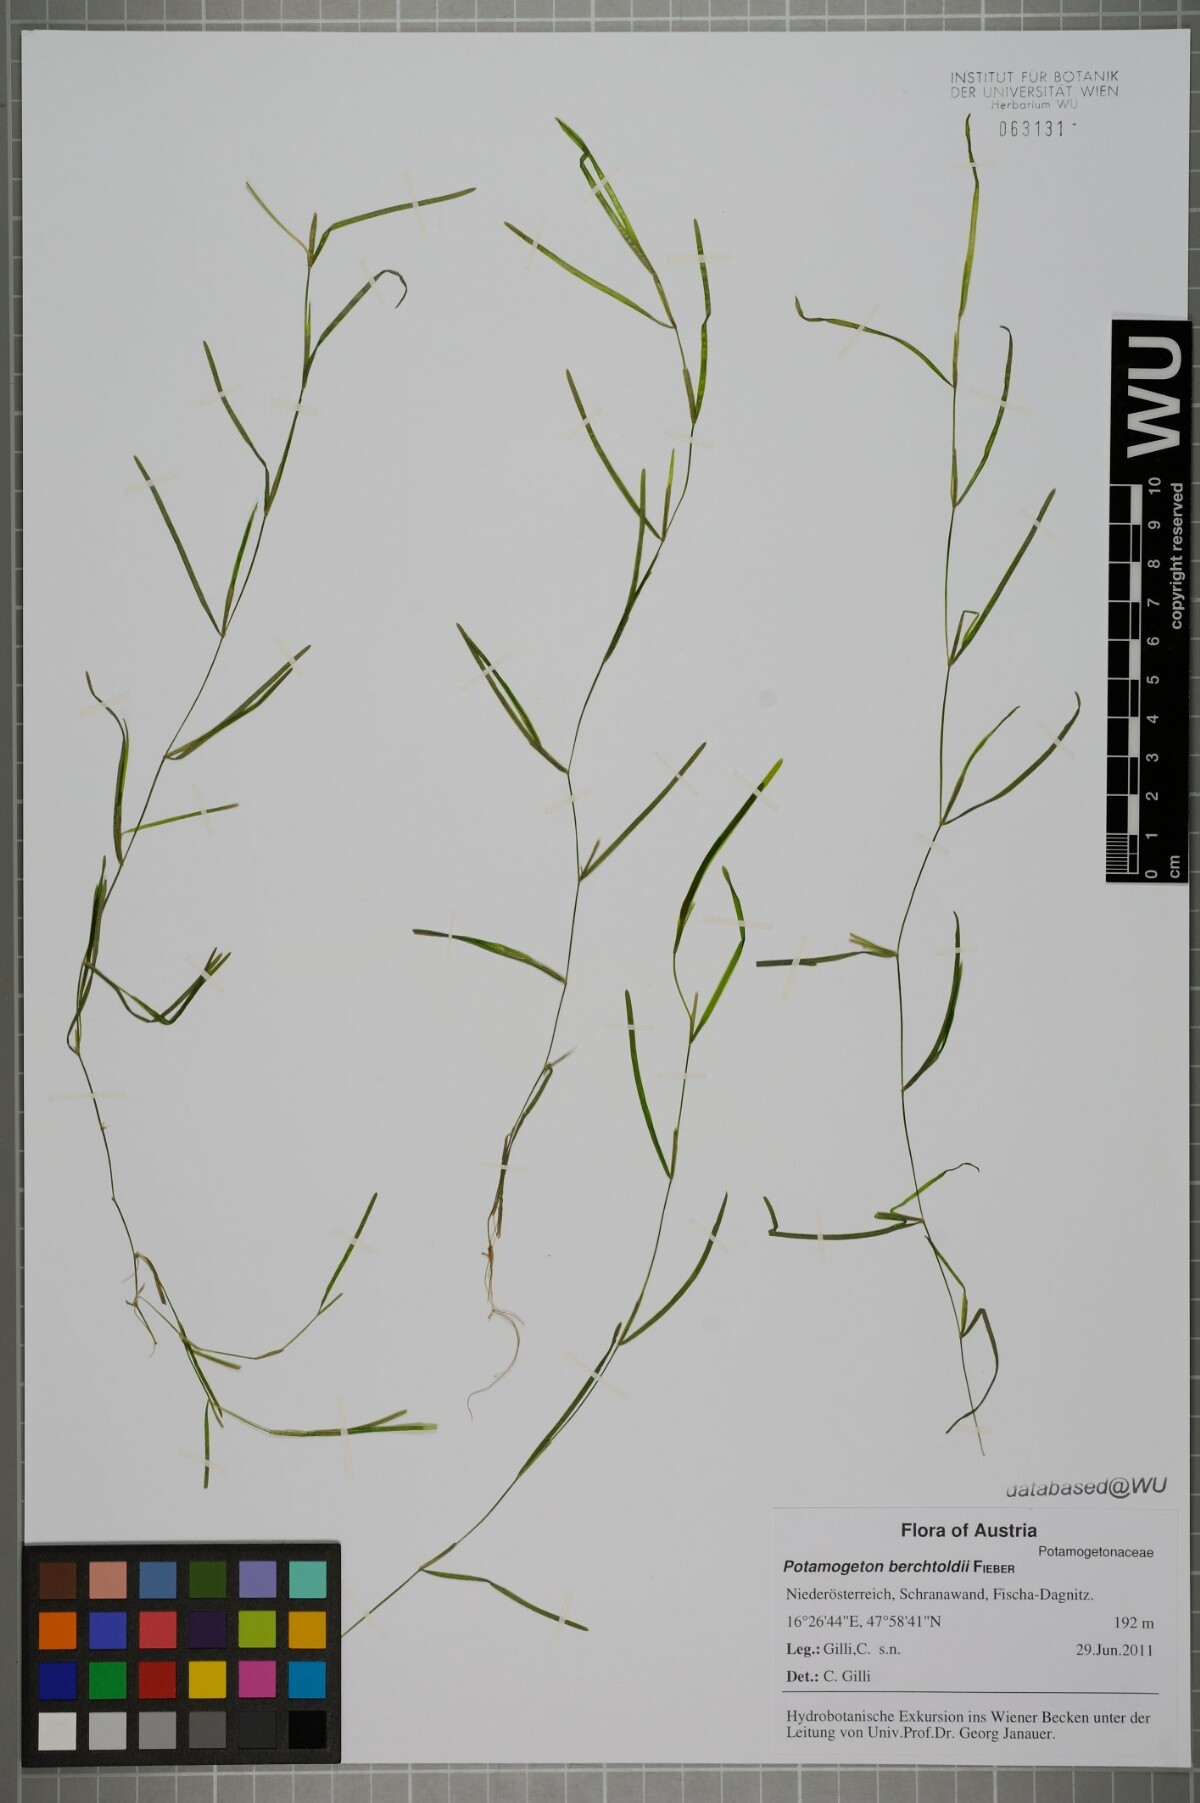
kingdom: Plantae
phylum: Tracheophyta
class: Liliopsida
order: Alismatales
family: Potamogetonaceae
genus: Potamogeton
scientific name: Potamogeton berchtoldii
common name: Small pondweed
